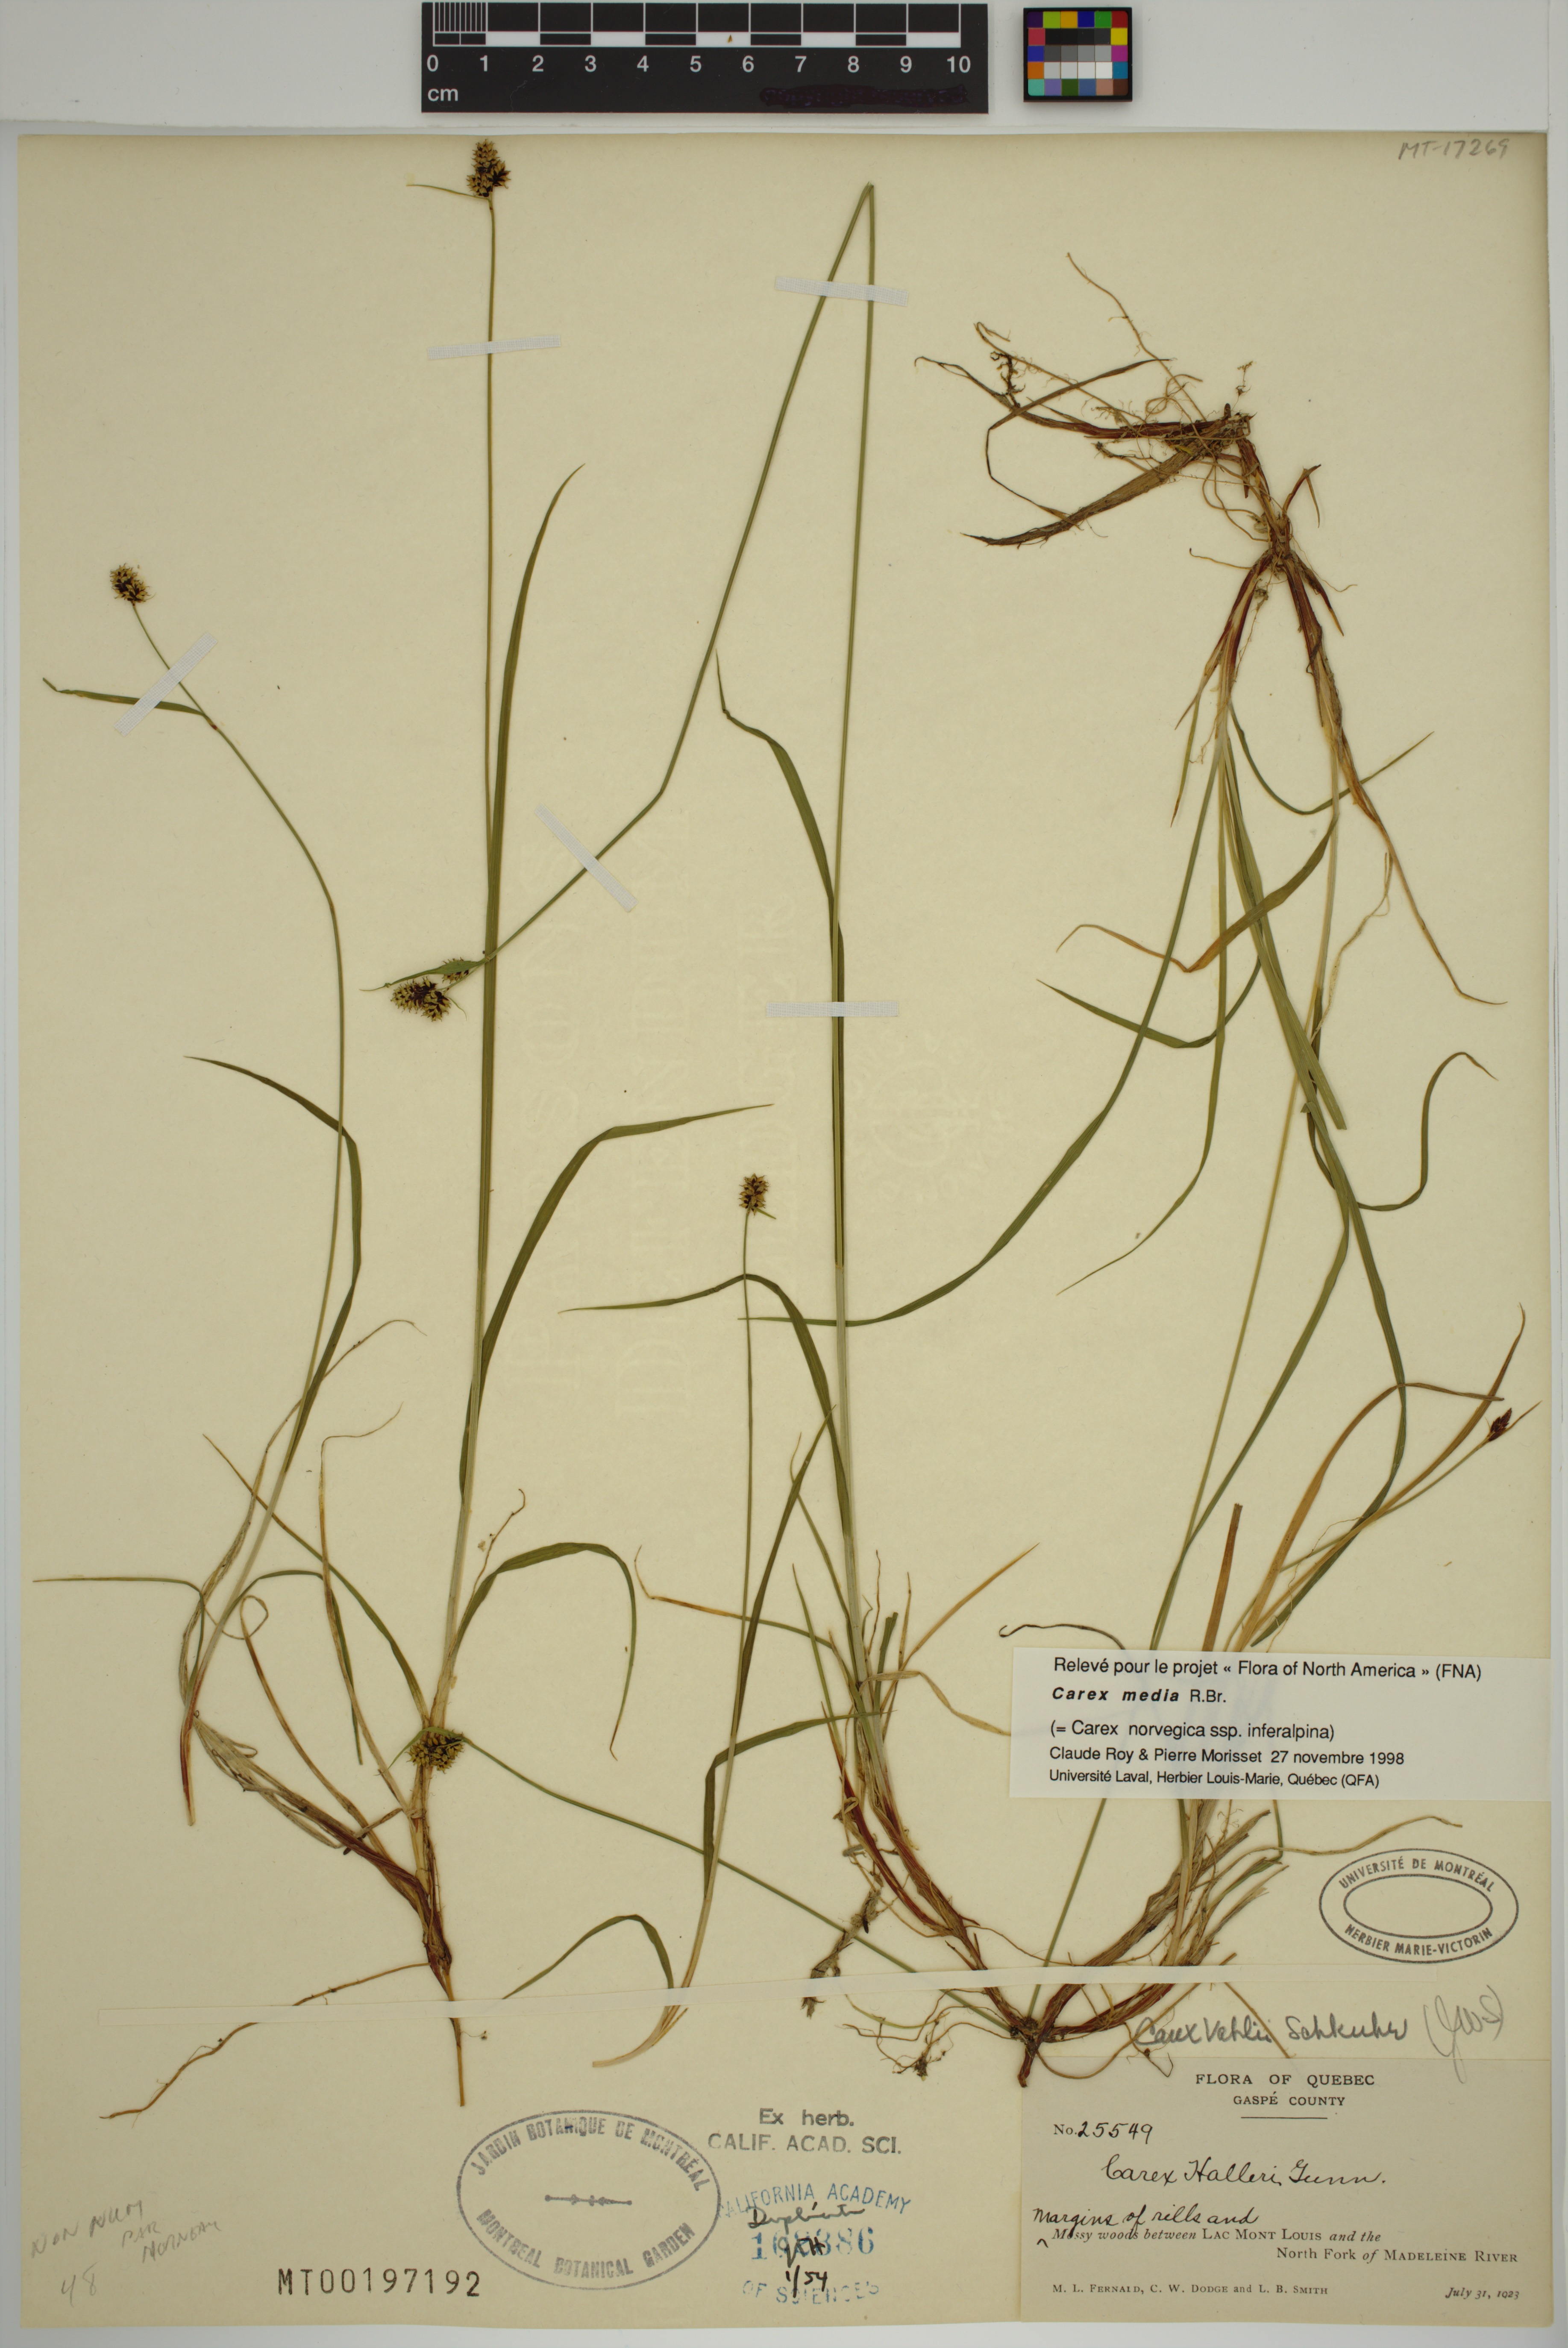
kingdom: Plantae
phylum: Tracheophyta
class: Liliopsida
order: Poales
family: Cyperaceae
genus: Carex
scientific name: Carex media
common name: Alpine sedge
